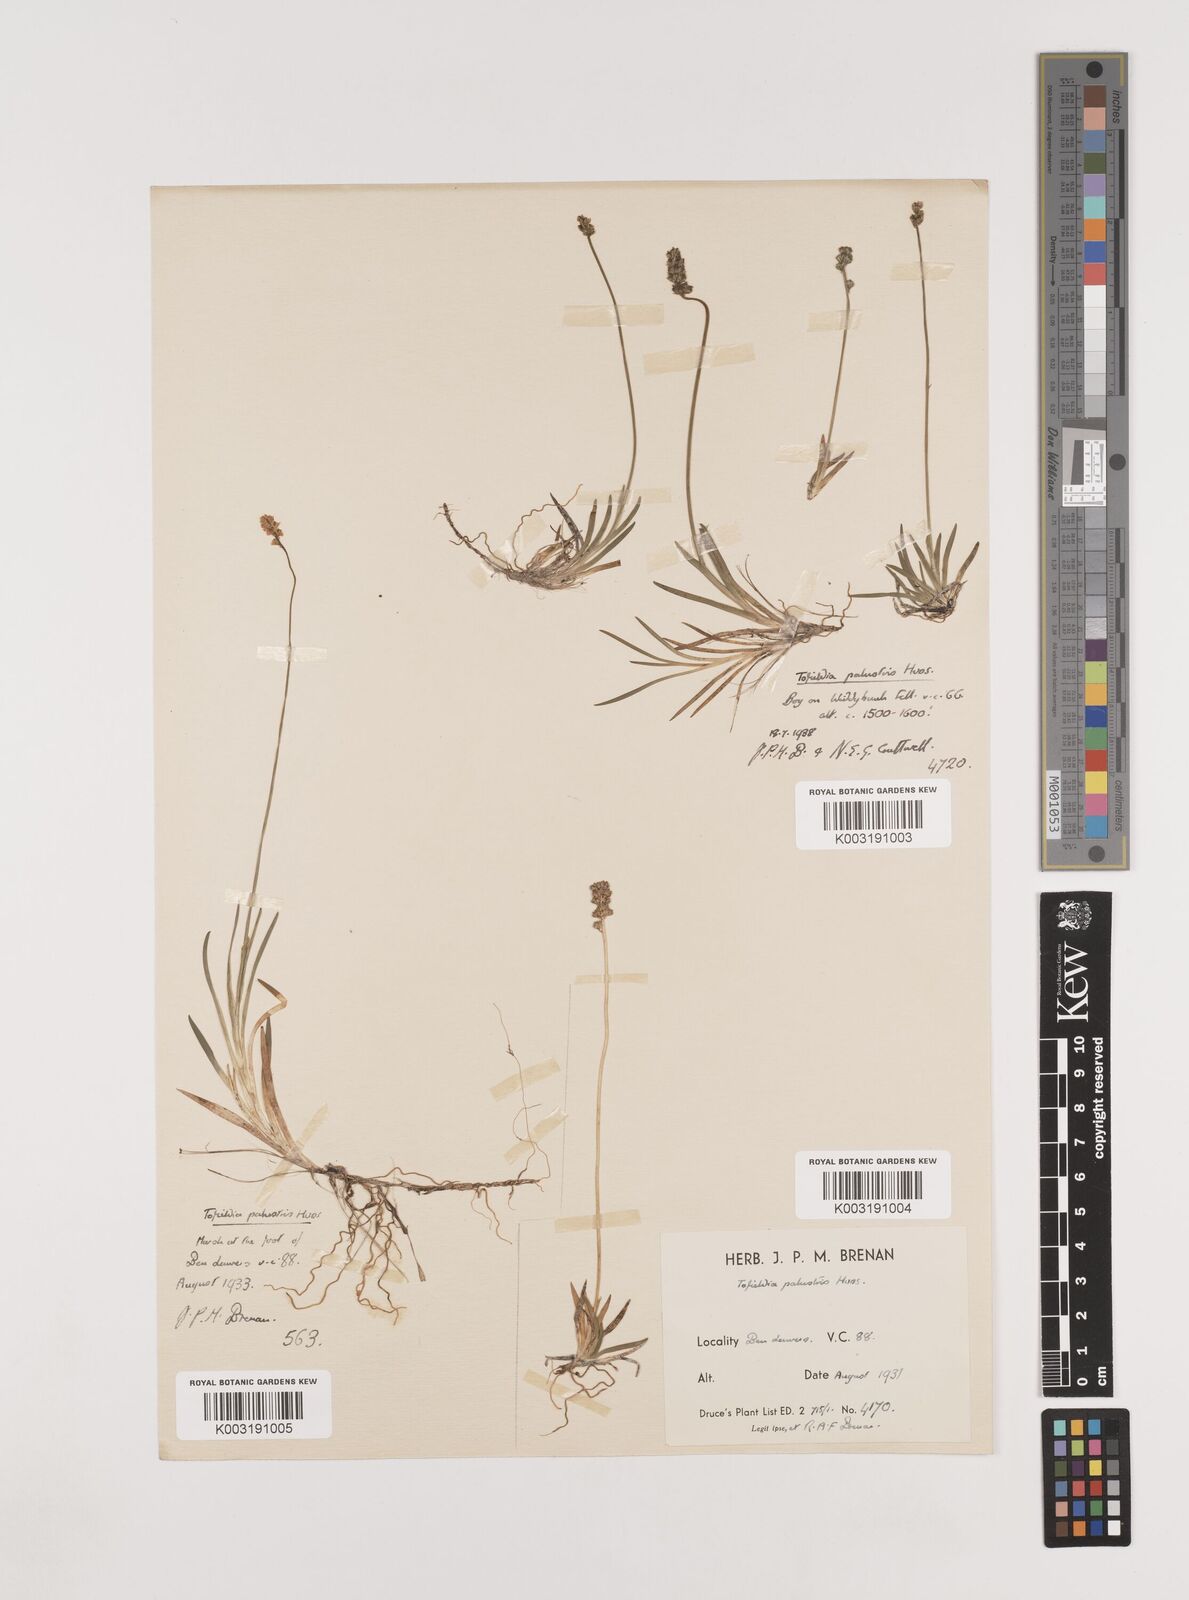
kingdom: Plantae
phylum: Tracheophyta
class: Liliopsida
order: Alismatales
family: Tofieldiaceae
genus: Tofieldia
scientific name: Tofieldia pusilla
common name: Scottish false asphodel
